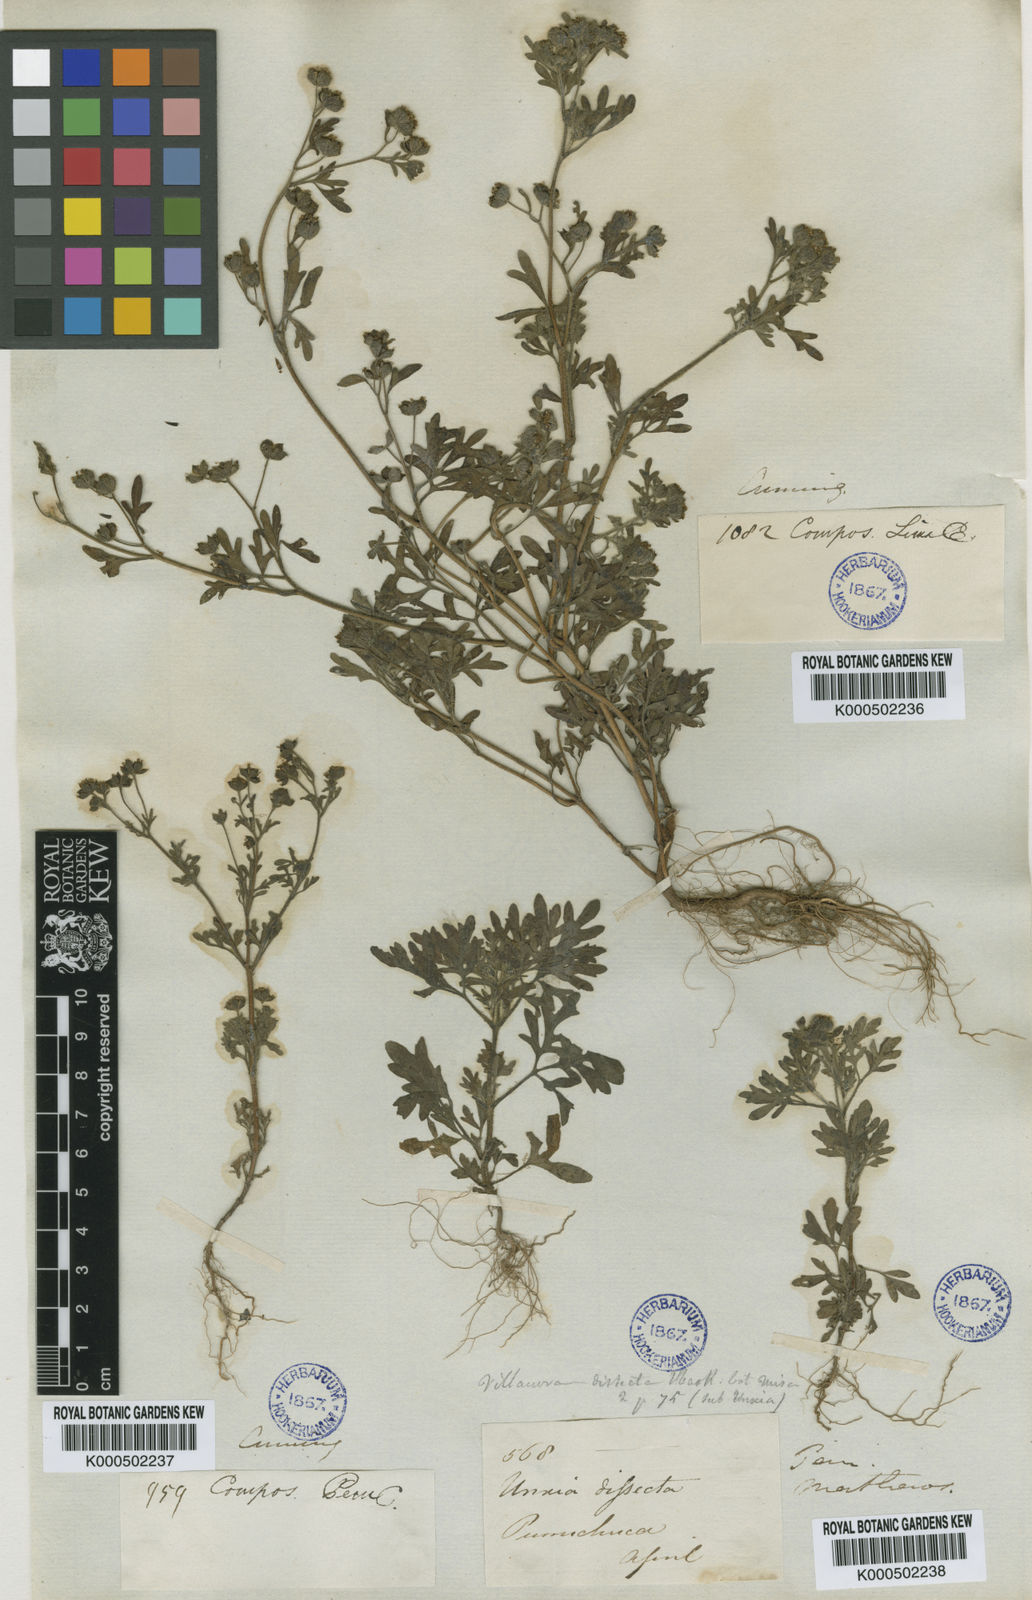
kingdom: Plantae
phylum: Tracheophyta
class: Magnoliopsida
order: Asterales
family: Asteraceae
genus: Villanova
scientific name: Villanova oppositifolia
